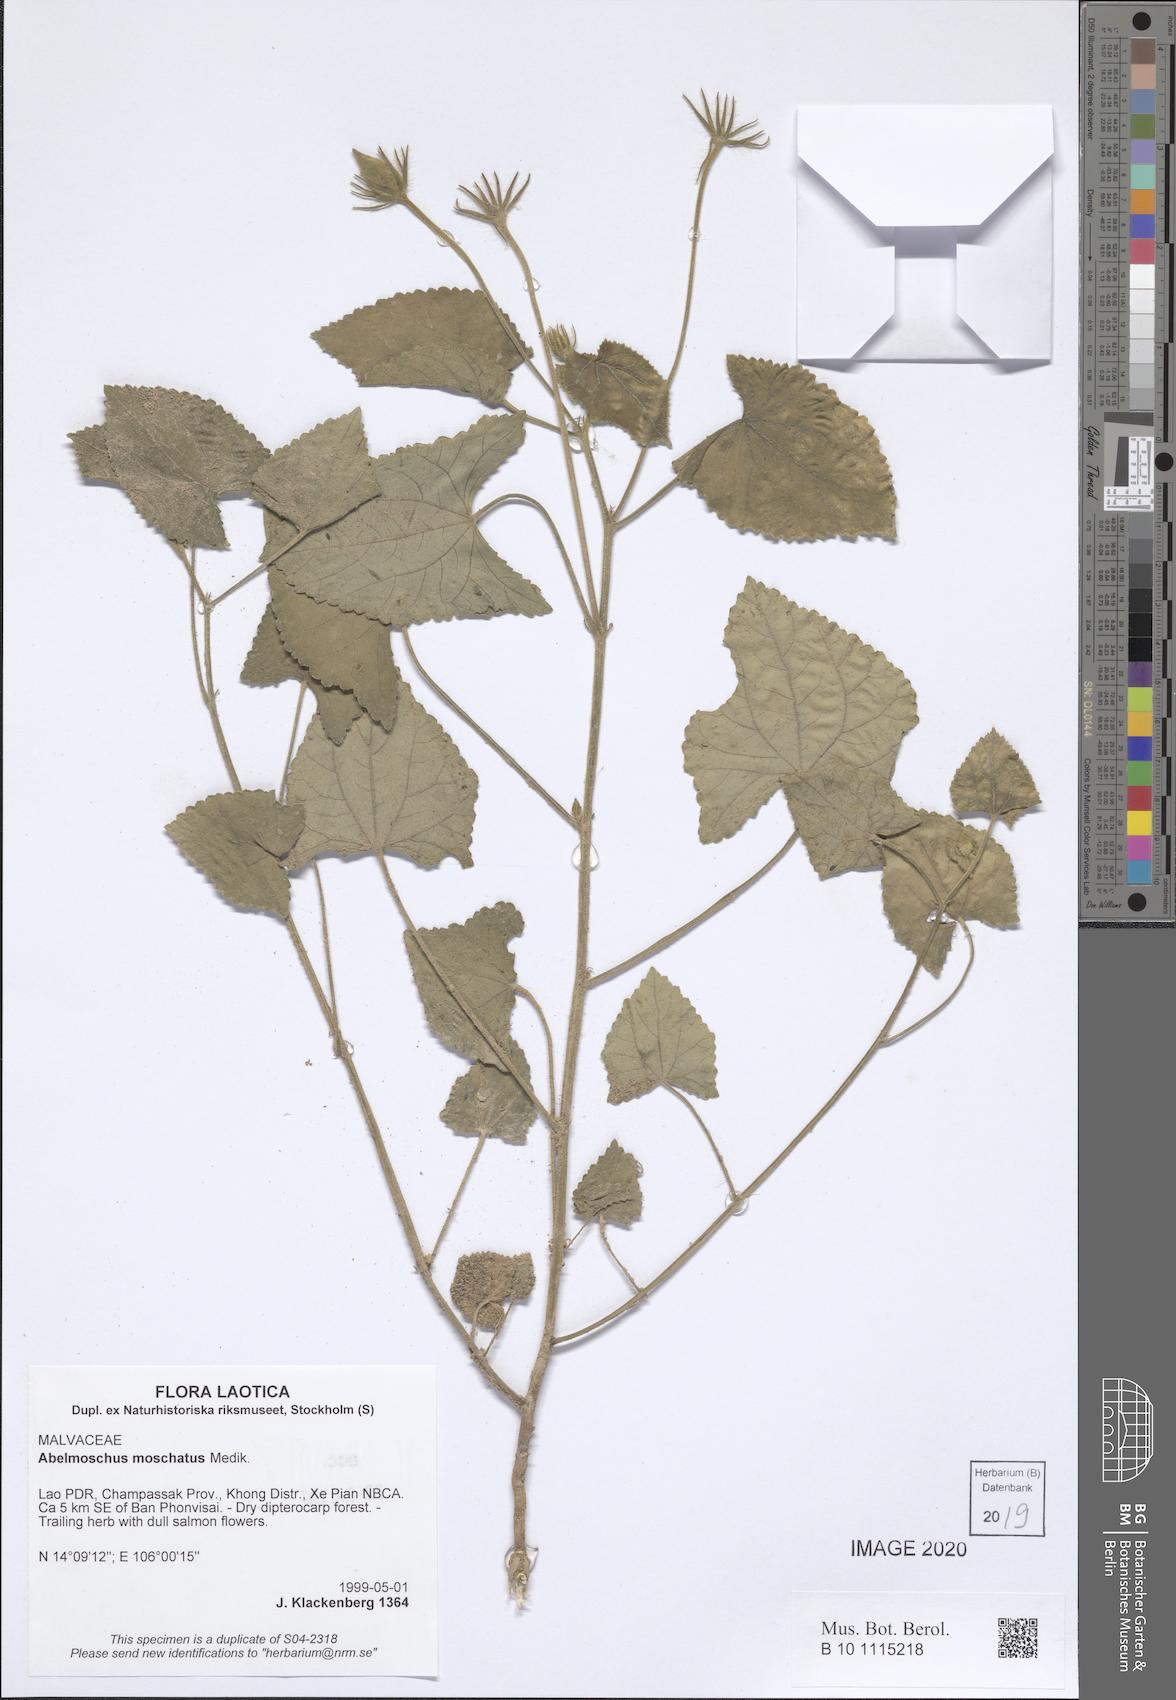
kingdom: Plantae
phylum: Tracheophyta
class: Magnoliopsida
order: Malvales
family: Malvaceae
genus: Abelmoschus
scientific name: Abelmoschus moschatus
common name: Musk okra
